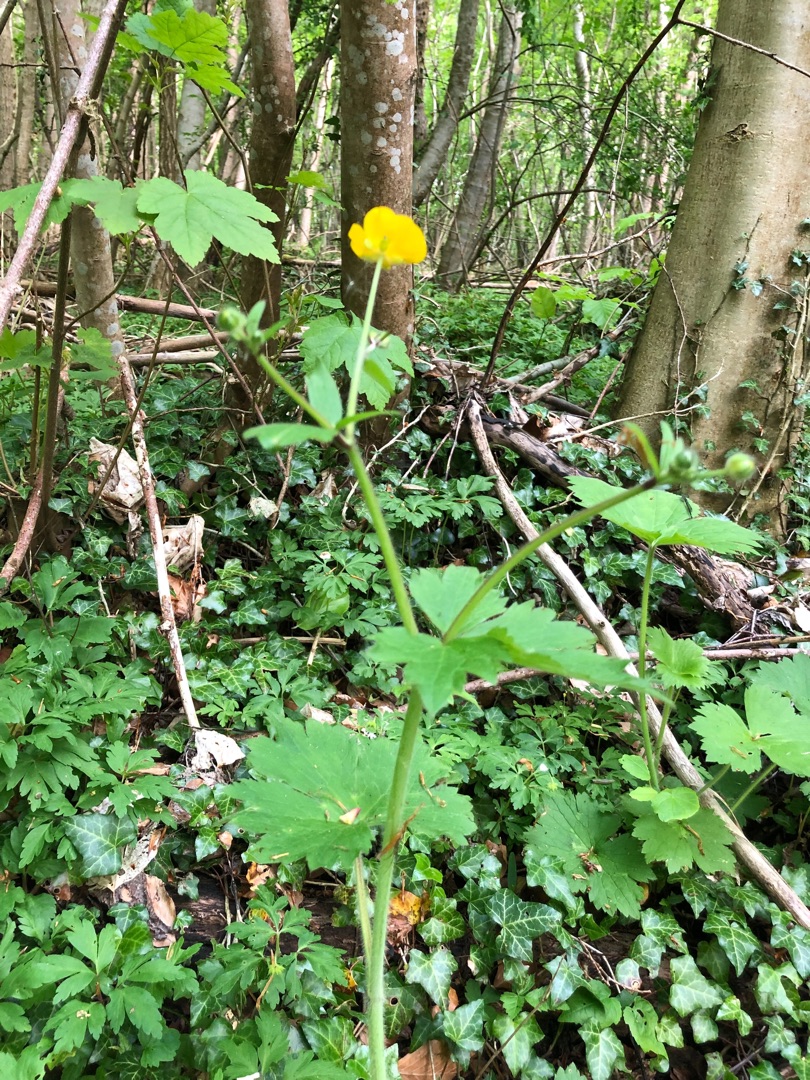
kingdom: Plantae
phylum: Tracheophyta
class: Magnoliopsida
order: Ranunculales
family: Ranunculaceae
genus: Ranunculus
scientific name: Ranunculus lanuginosus
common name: Uldhåret ranunkel
